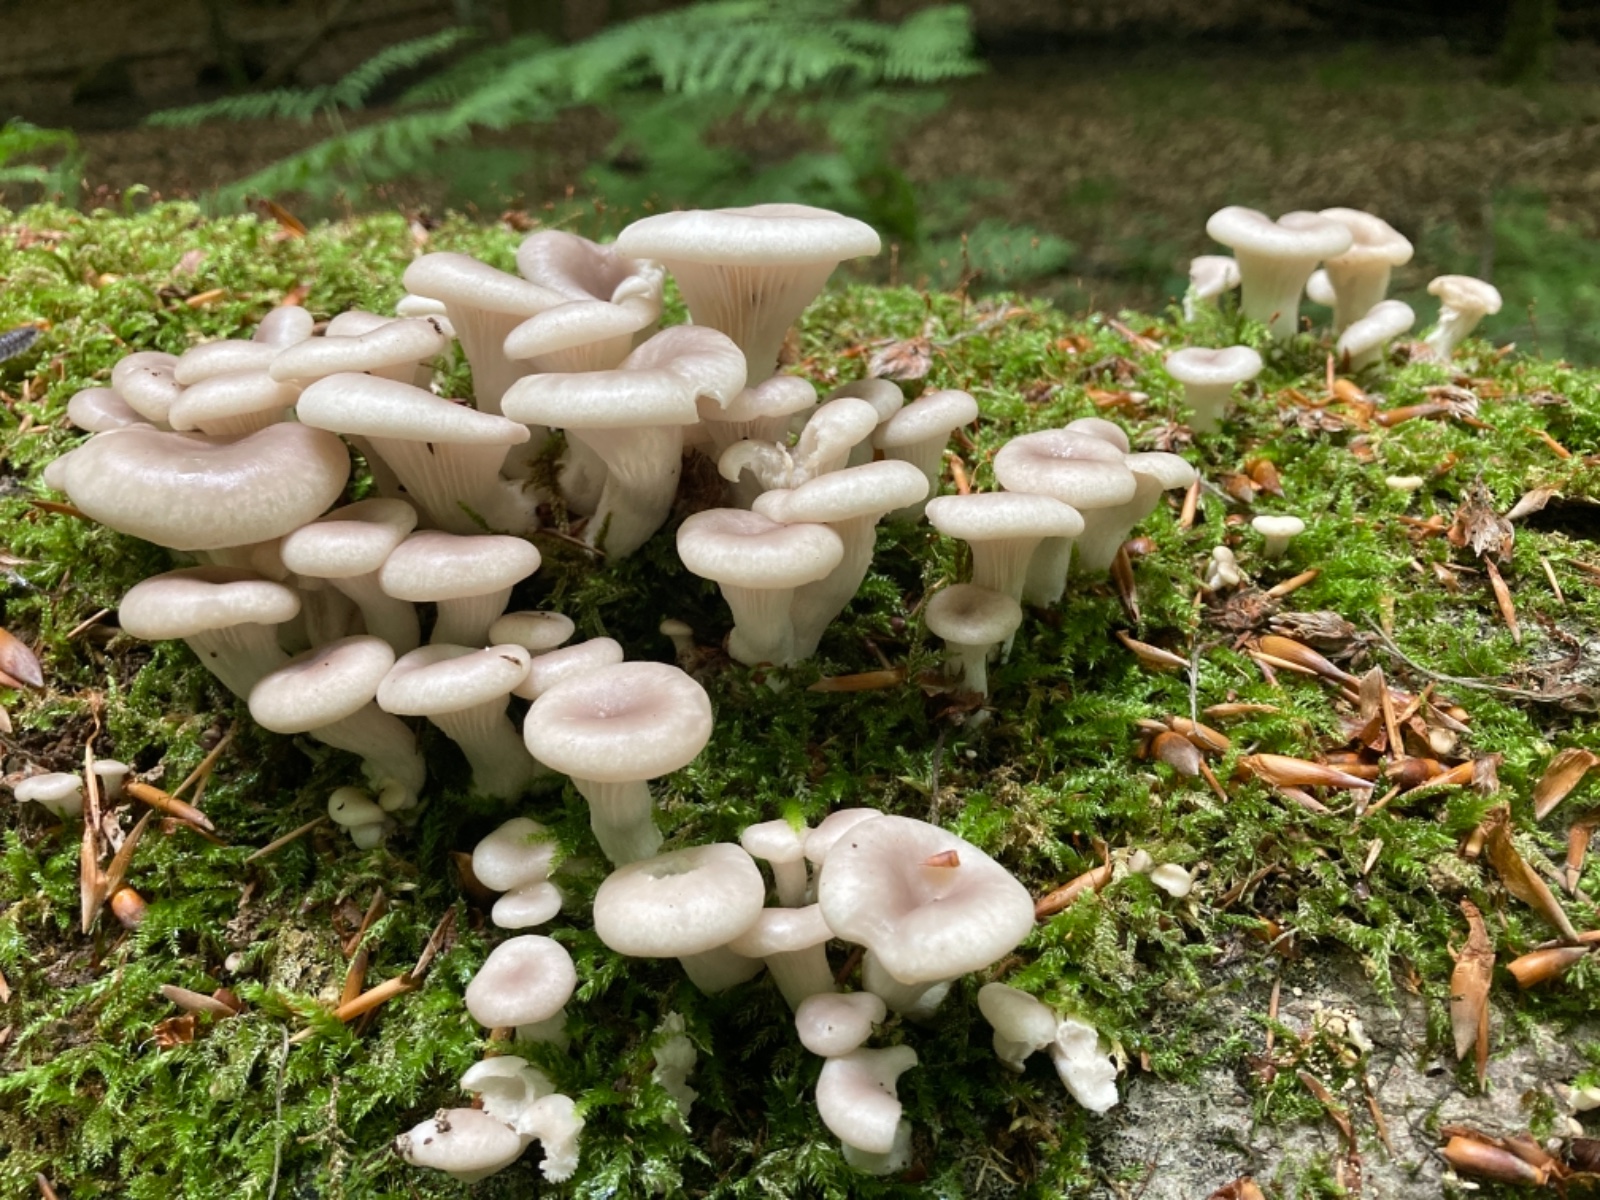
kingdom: Fungi
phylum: Basidiomycota
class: Agaricomycetes
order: Agaricales
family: Pleurotaceae
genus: Pleurotus
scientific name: Pleurotus pulmonarius
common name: sommer-østershat
